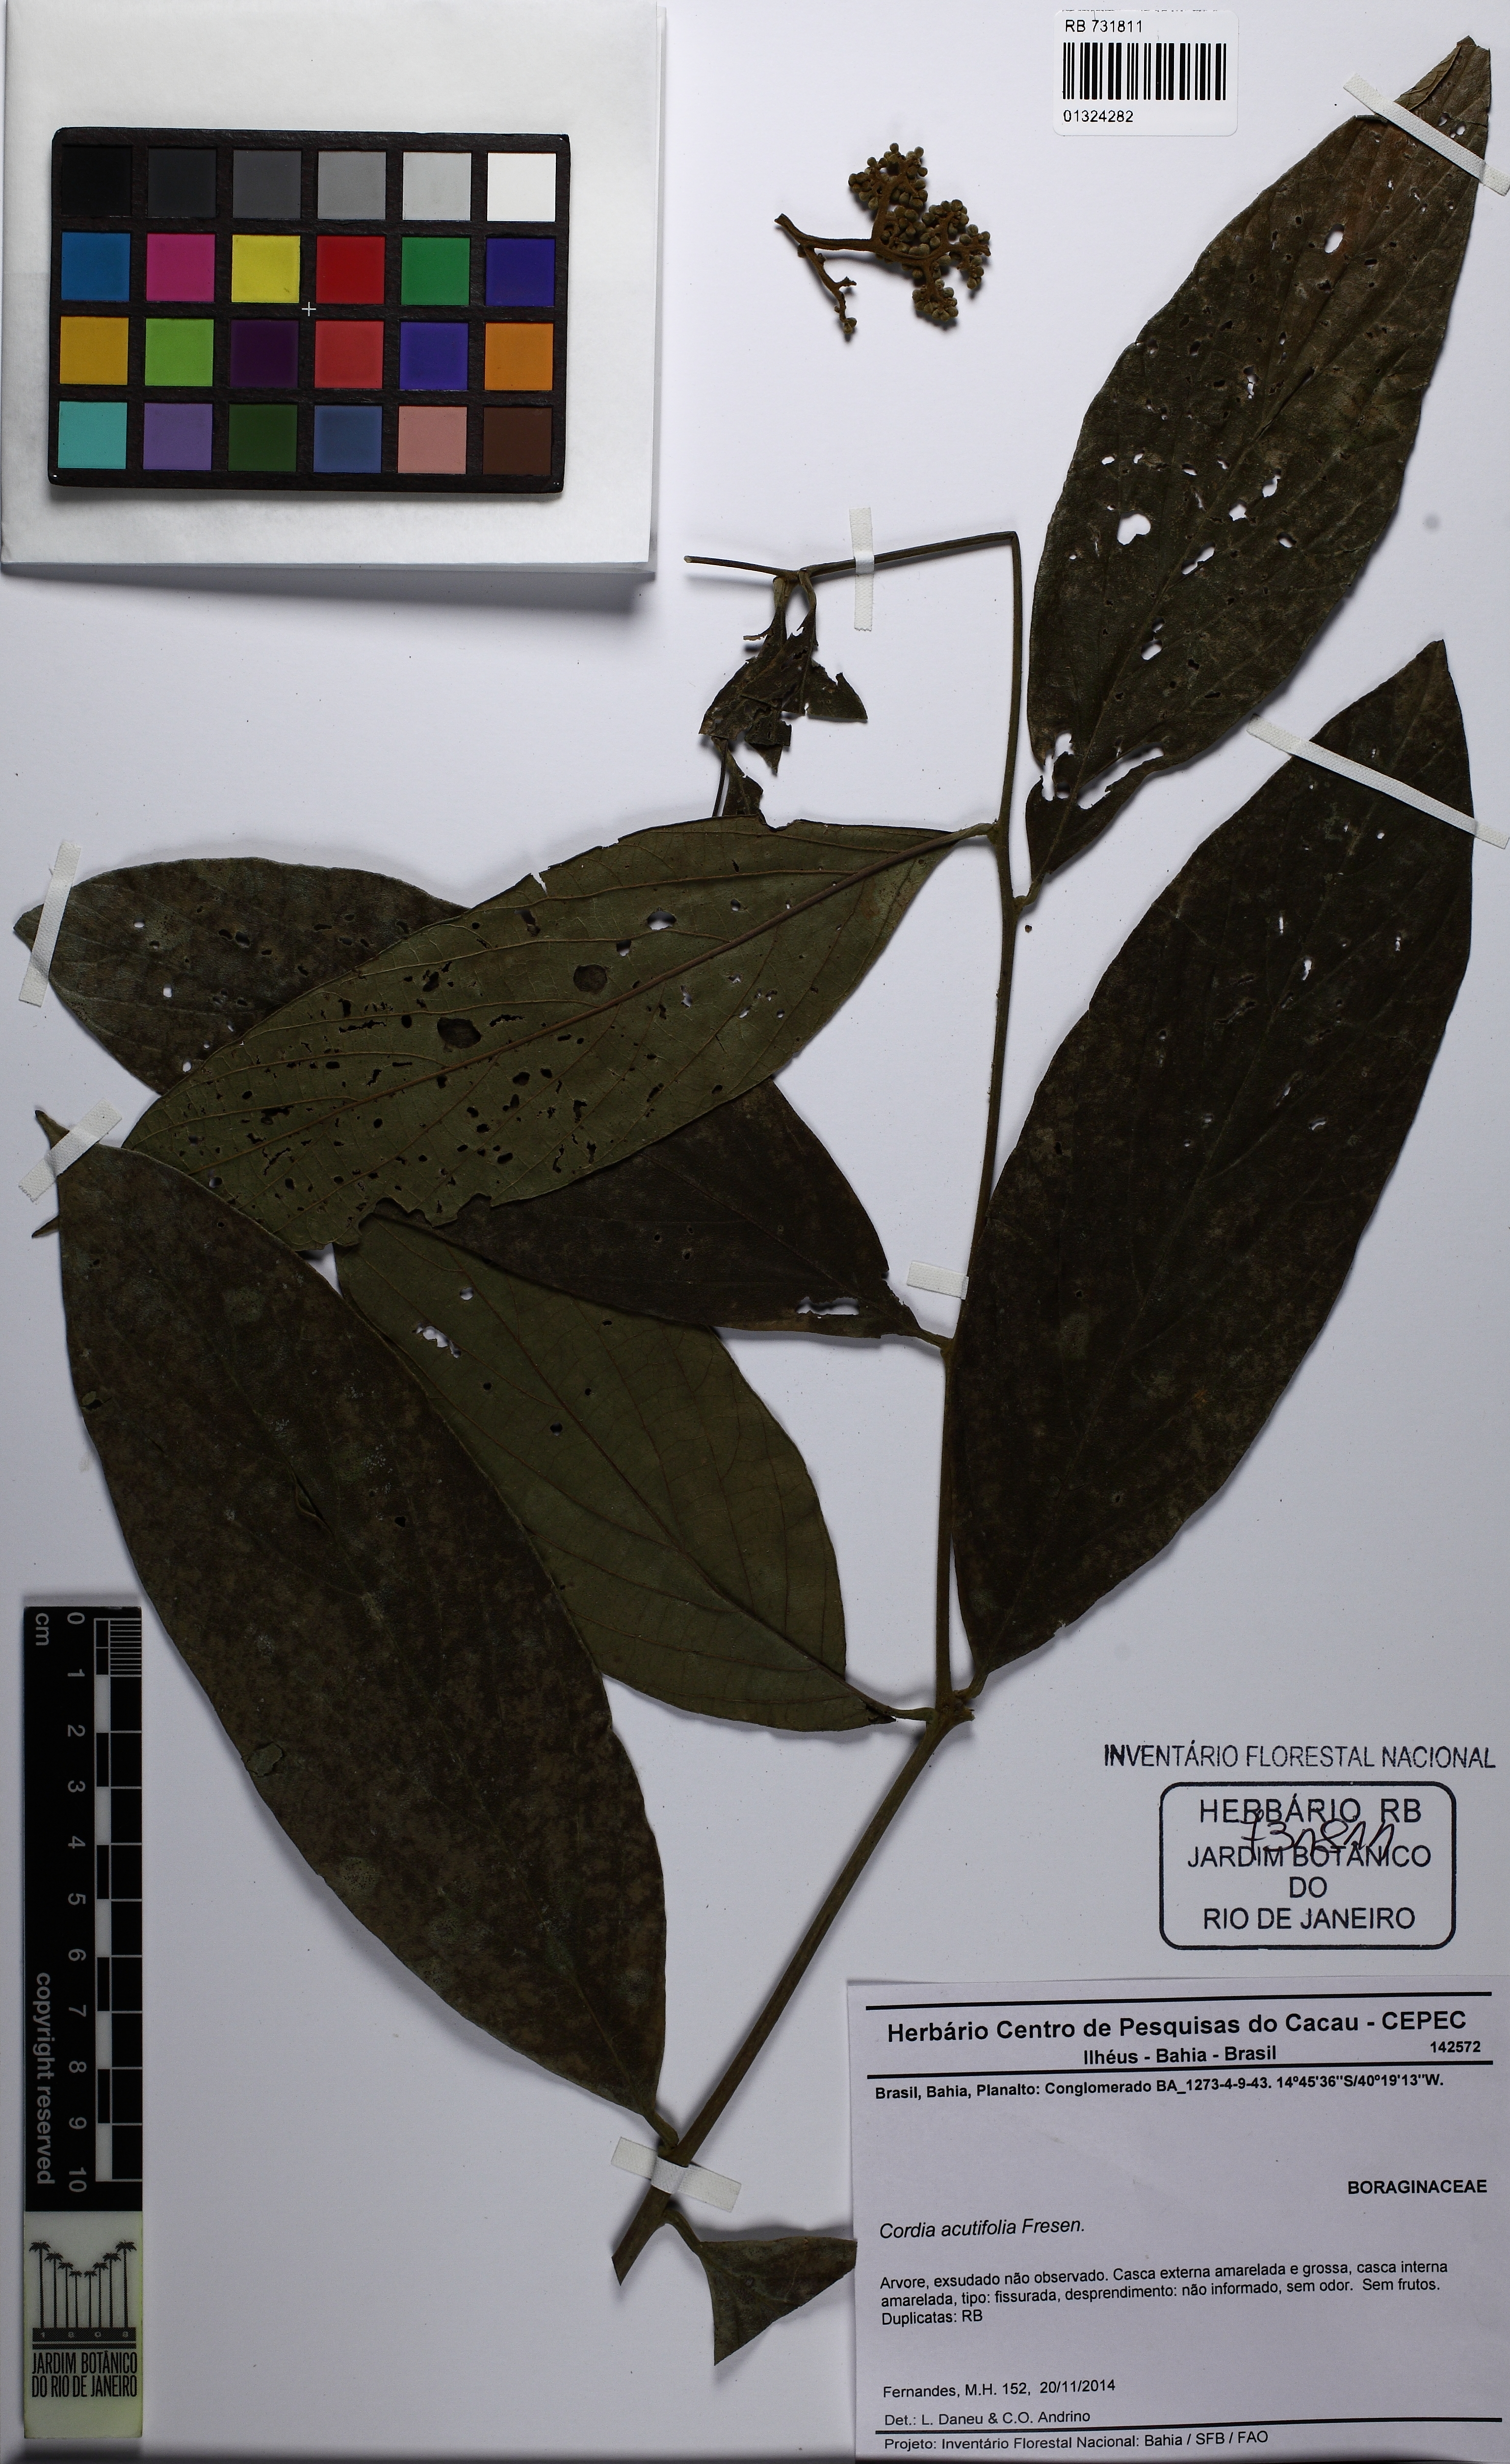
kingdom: Plantae
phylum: Tracheophyta
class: Magnoliopsida
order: Boraginales
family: Cordiaceae
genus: Cordia
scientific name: Cordia acutifolia
